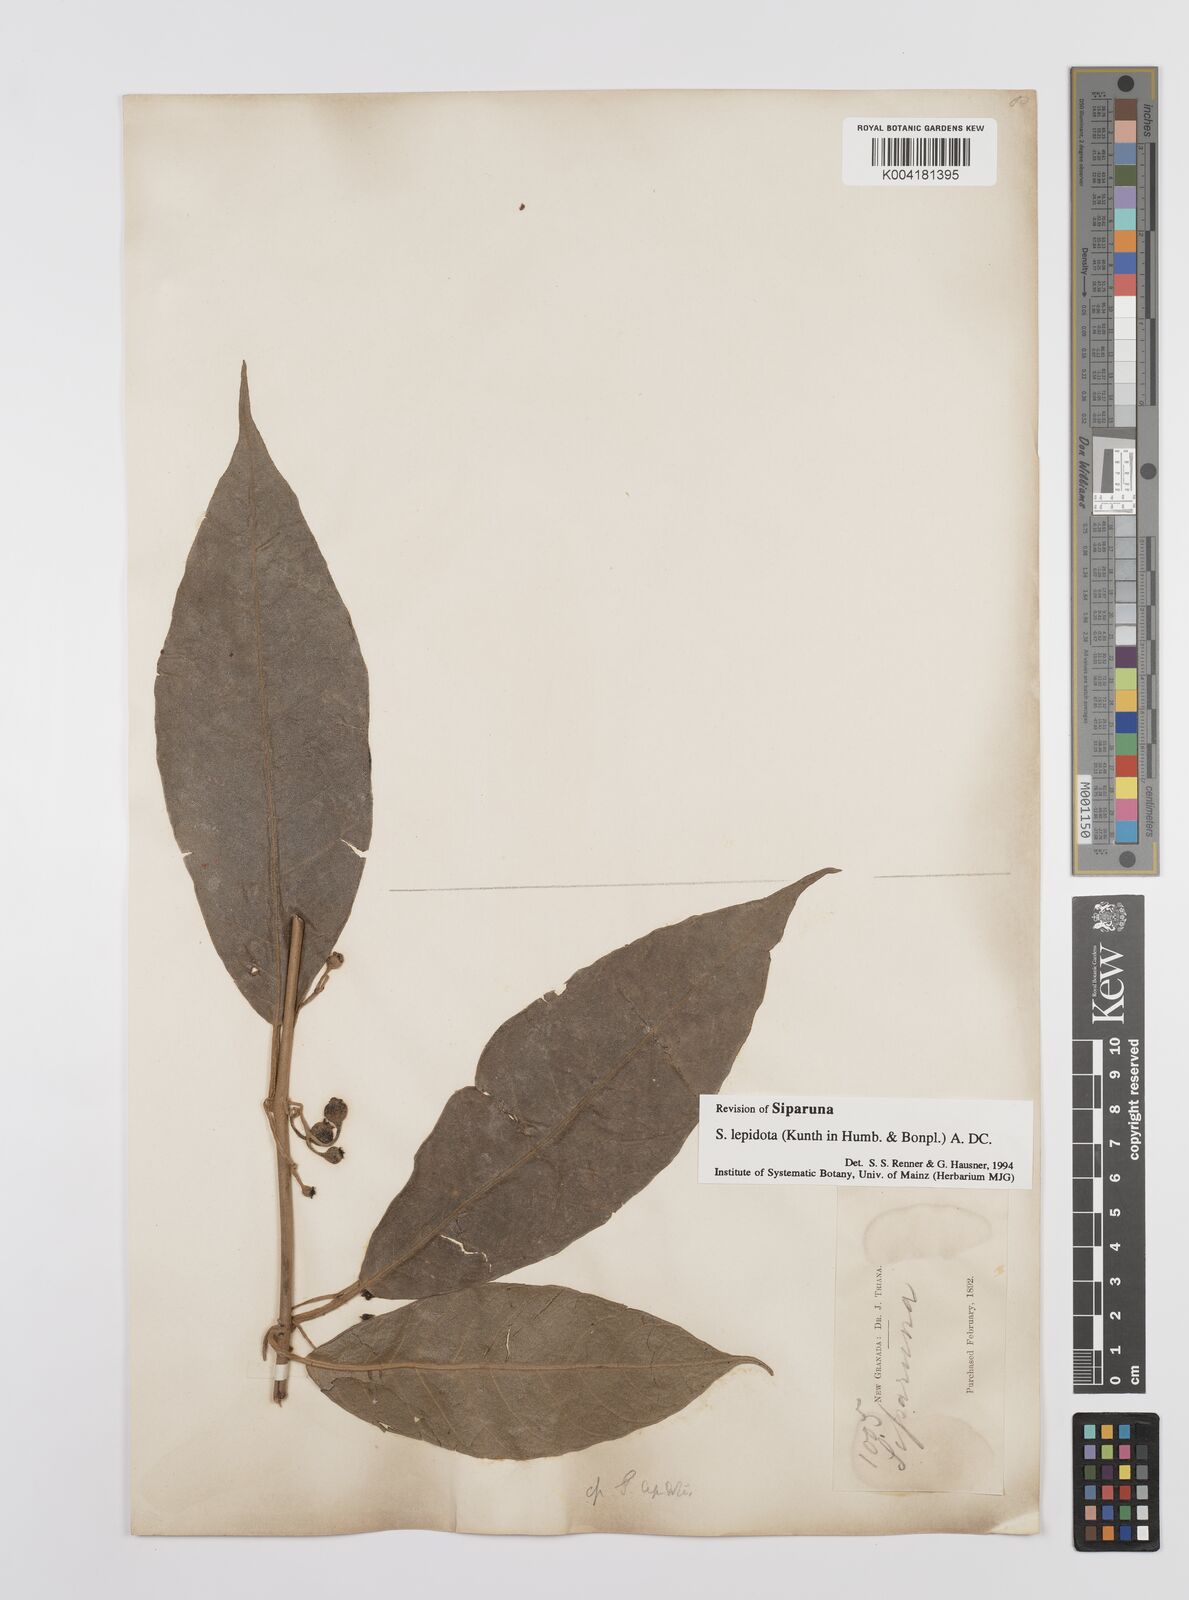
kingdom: Plantae
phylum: Tracheophyta
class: Magnoliopsida
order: Laurales
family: Siparunaceae
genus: Siparuna
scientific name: Siparuna lepidota
